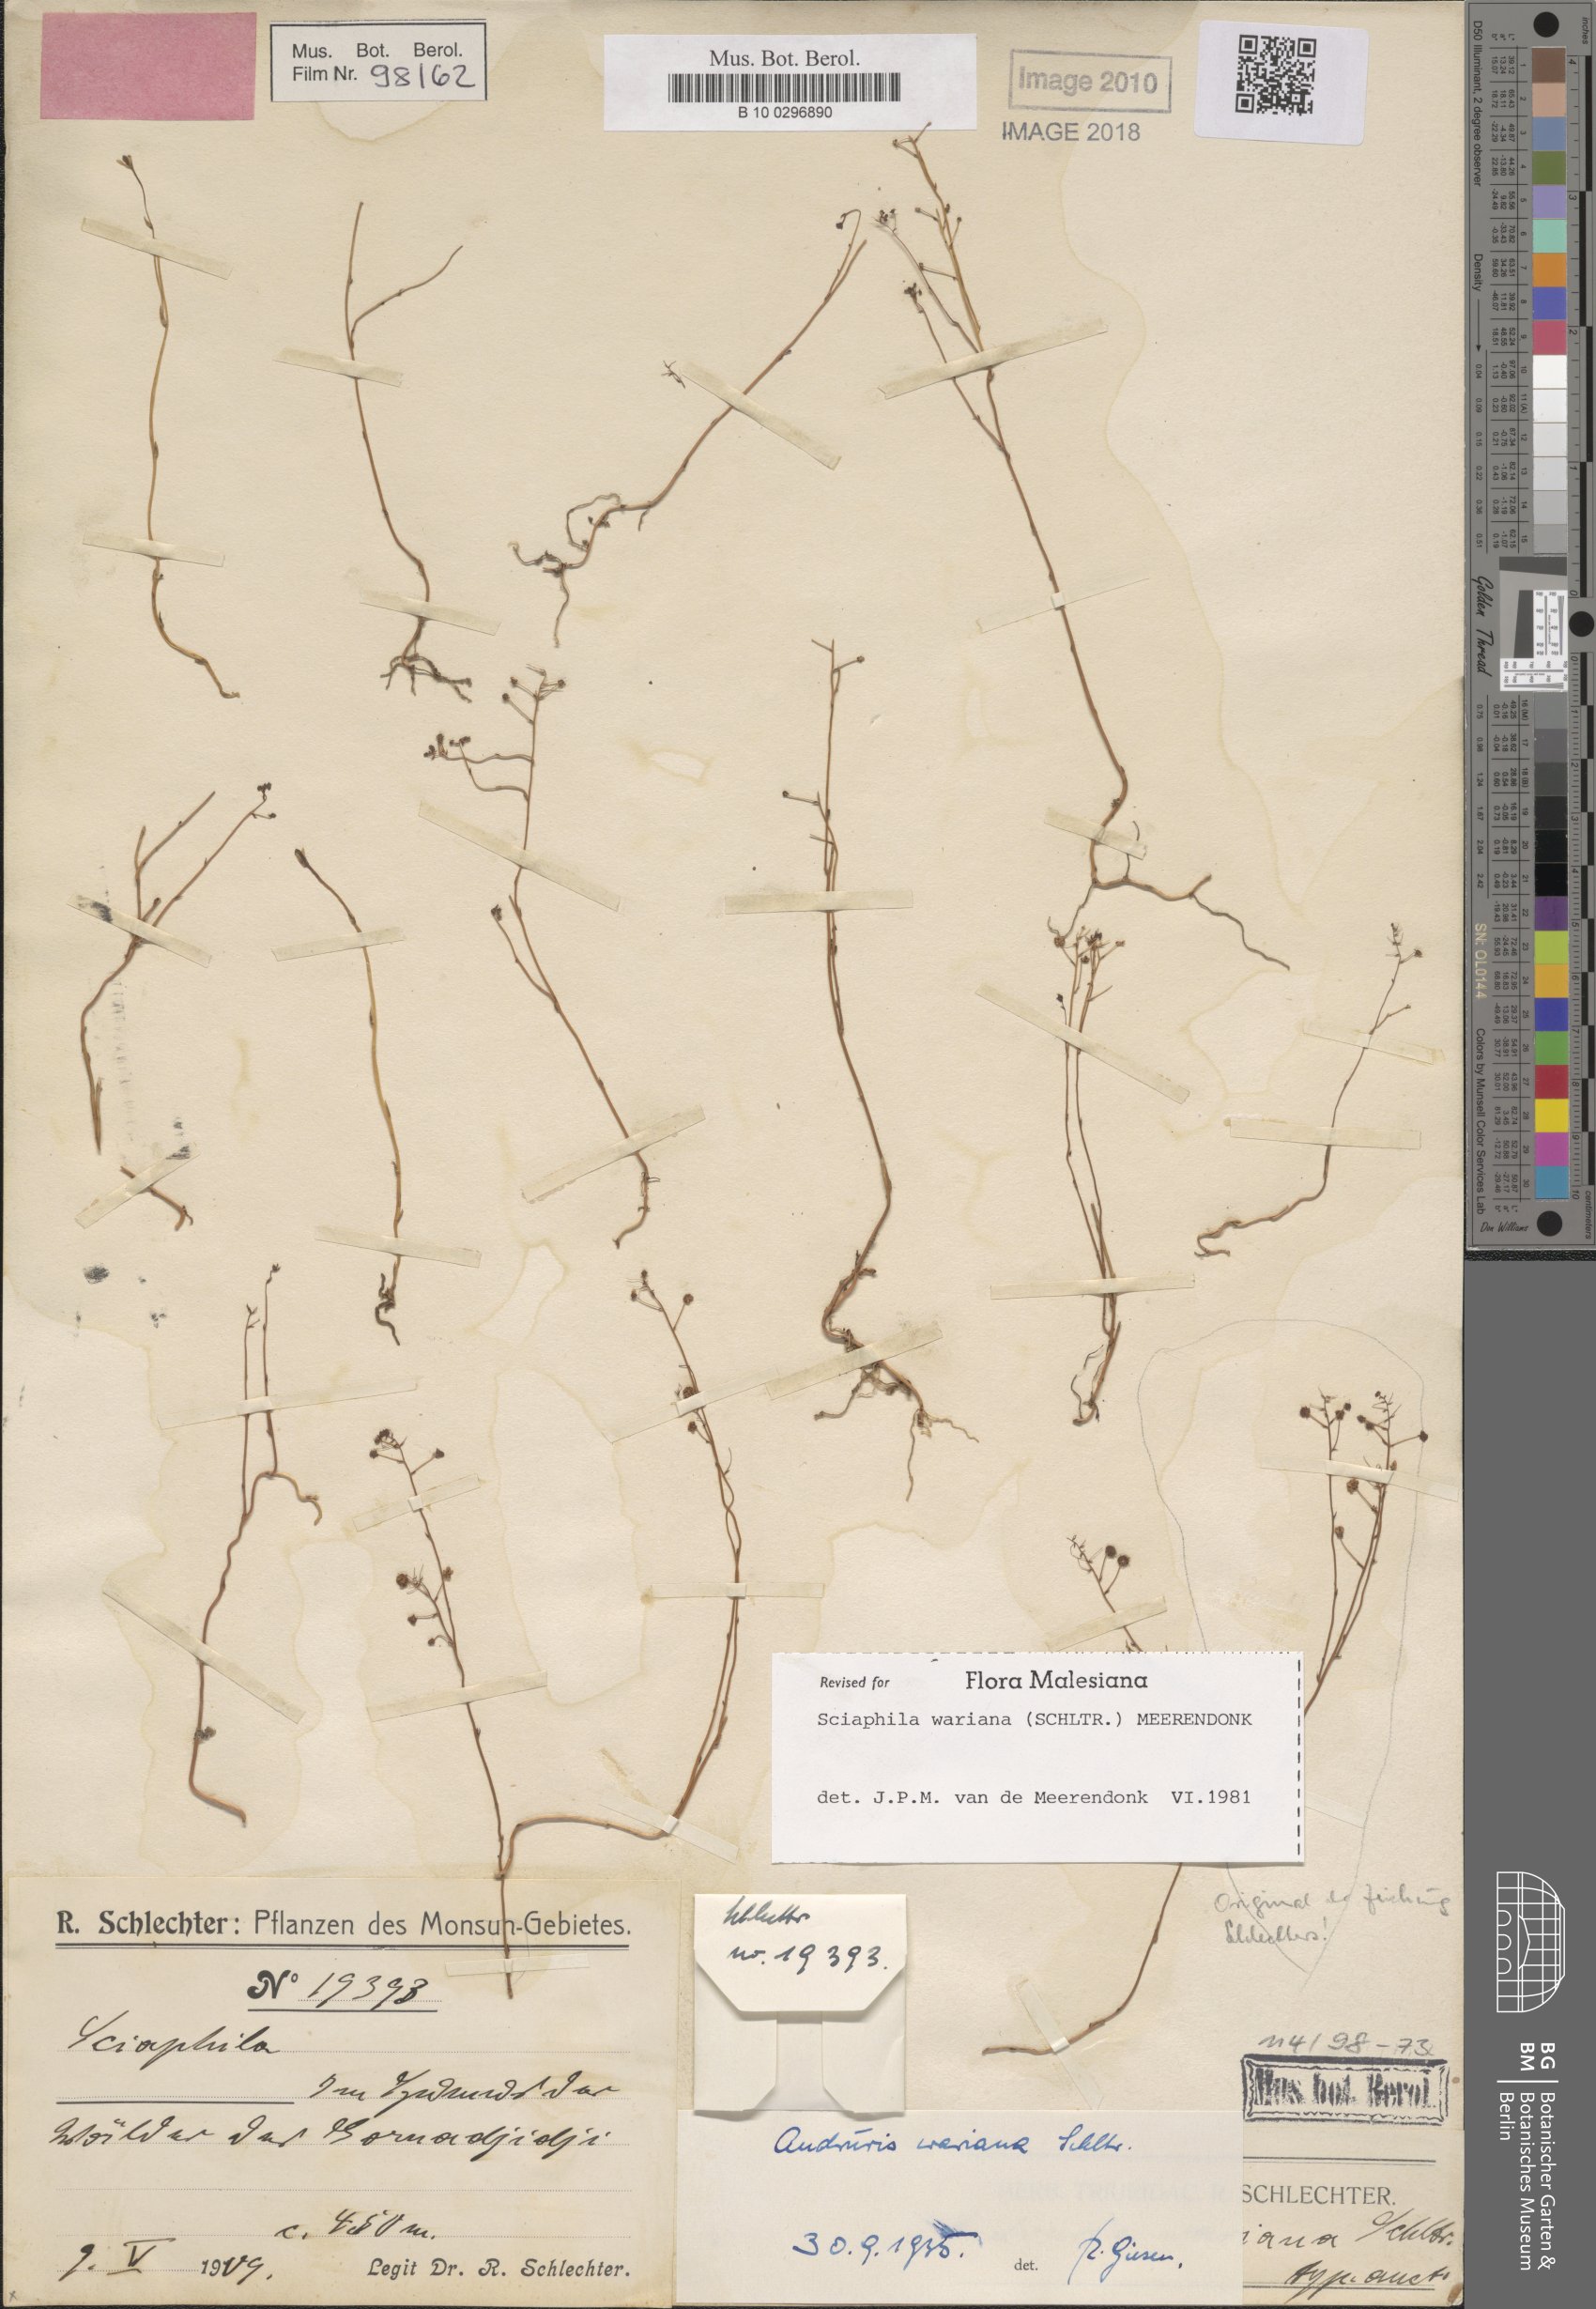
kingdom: Plantae
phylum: Tracheophyta
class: Liliopsida
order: Pandanales
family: Triuridaceae
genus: Sciaphila
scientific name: Sciaphila wariana
